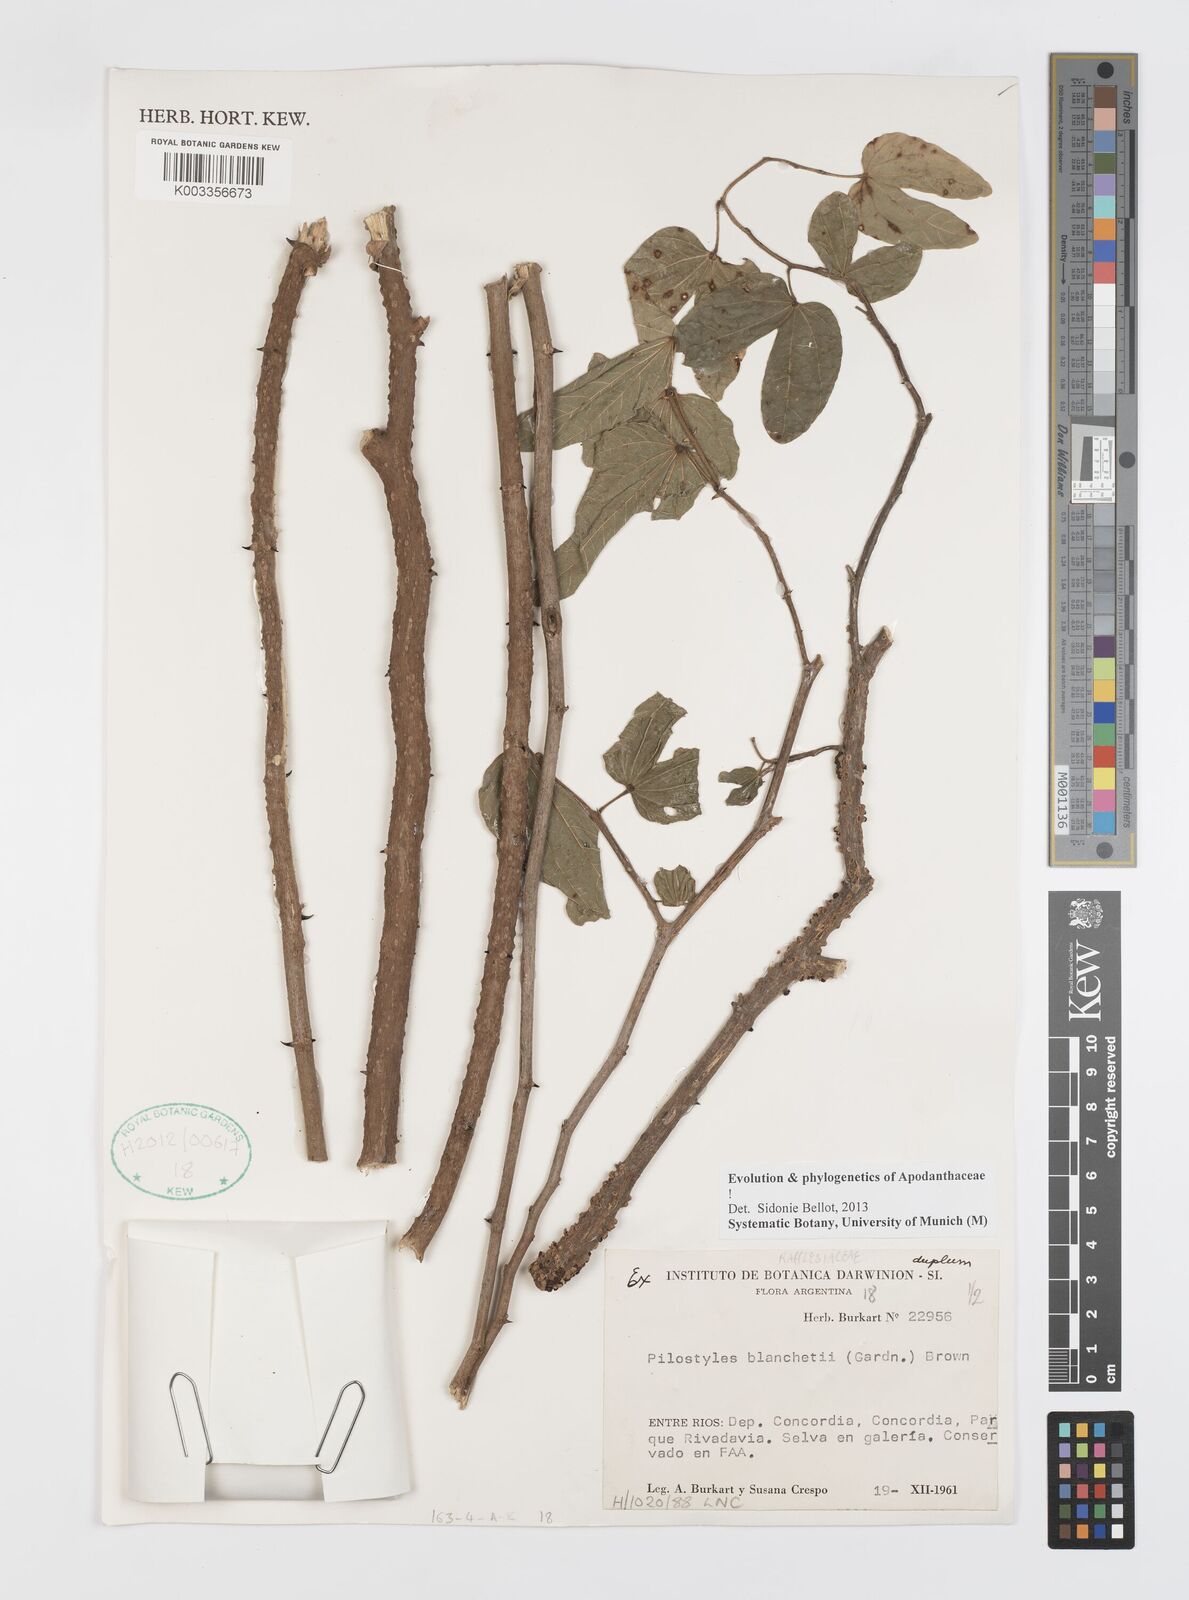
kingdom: Plantae
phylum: Tracheophyta
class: Magnoliopsida
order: Cucurbitales
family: Apodanthaceae
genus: Pilostyles
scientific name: Pilostyles blanchetii
